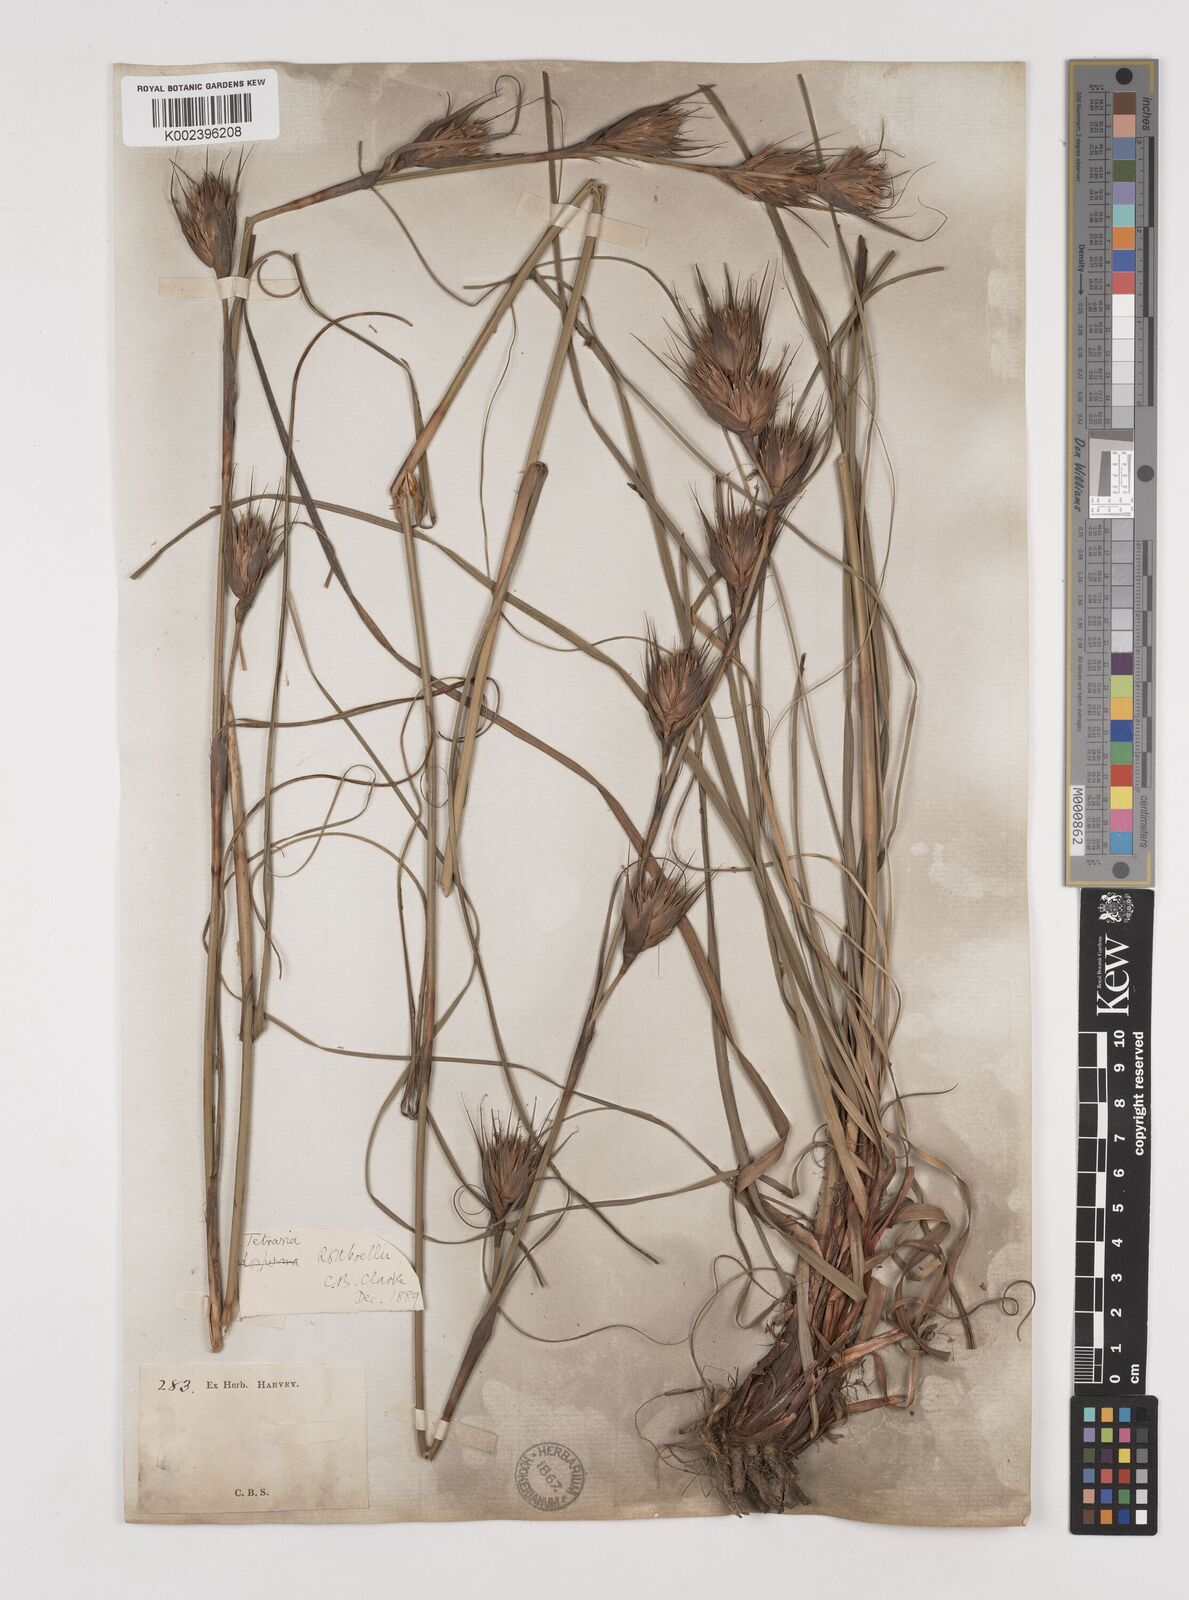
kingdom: Plantae
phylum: Tracheophyta
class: Liliopsida
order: Poales
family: Cyperaceae
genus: Tetraria
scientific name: Tetraria bromoides
